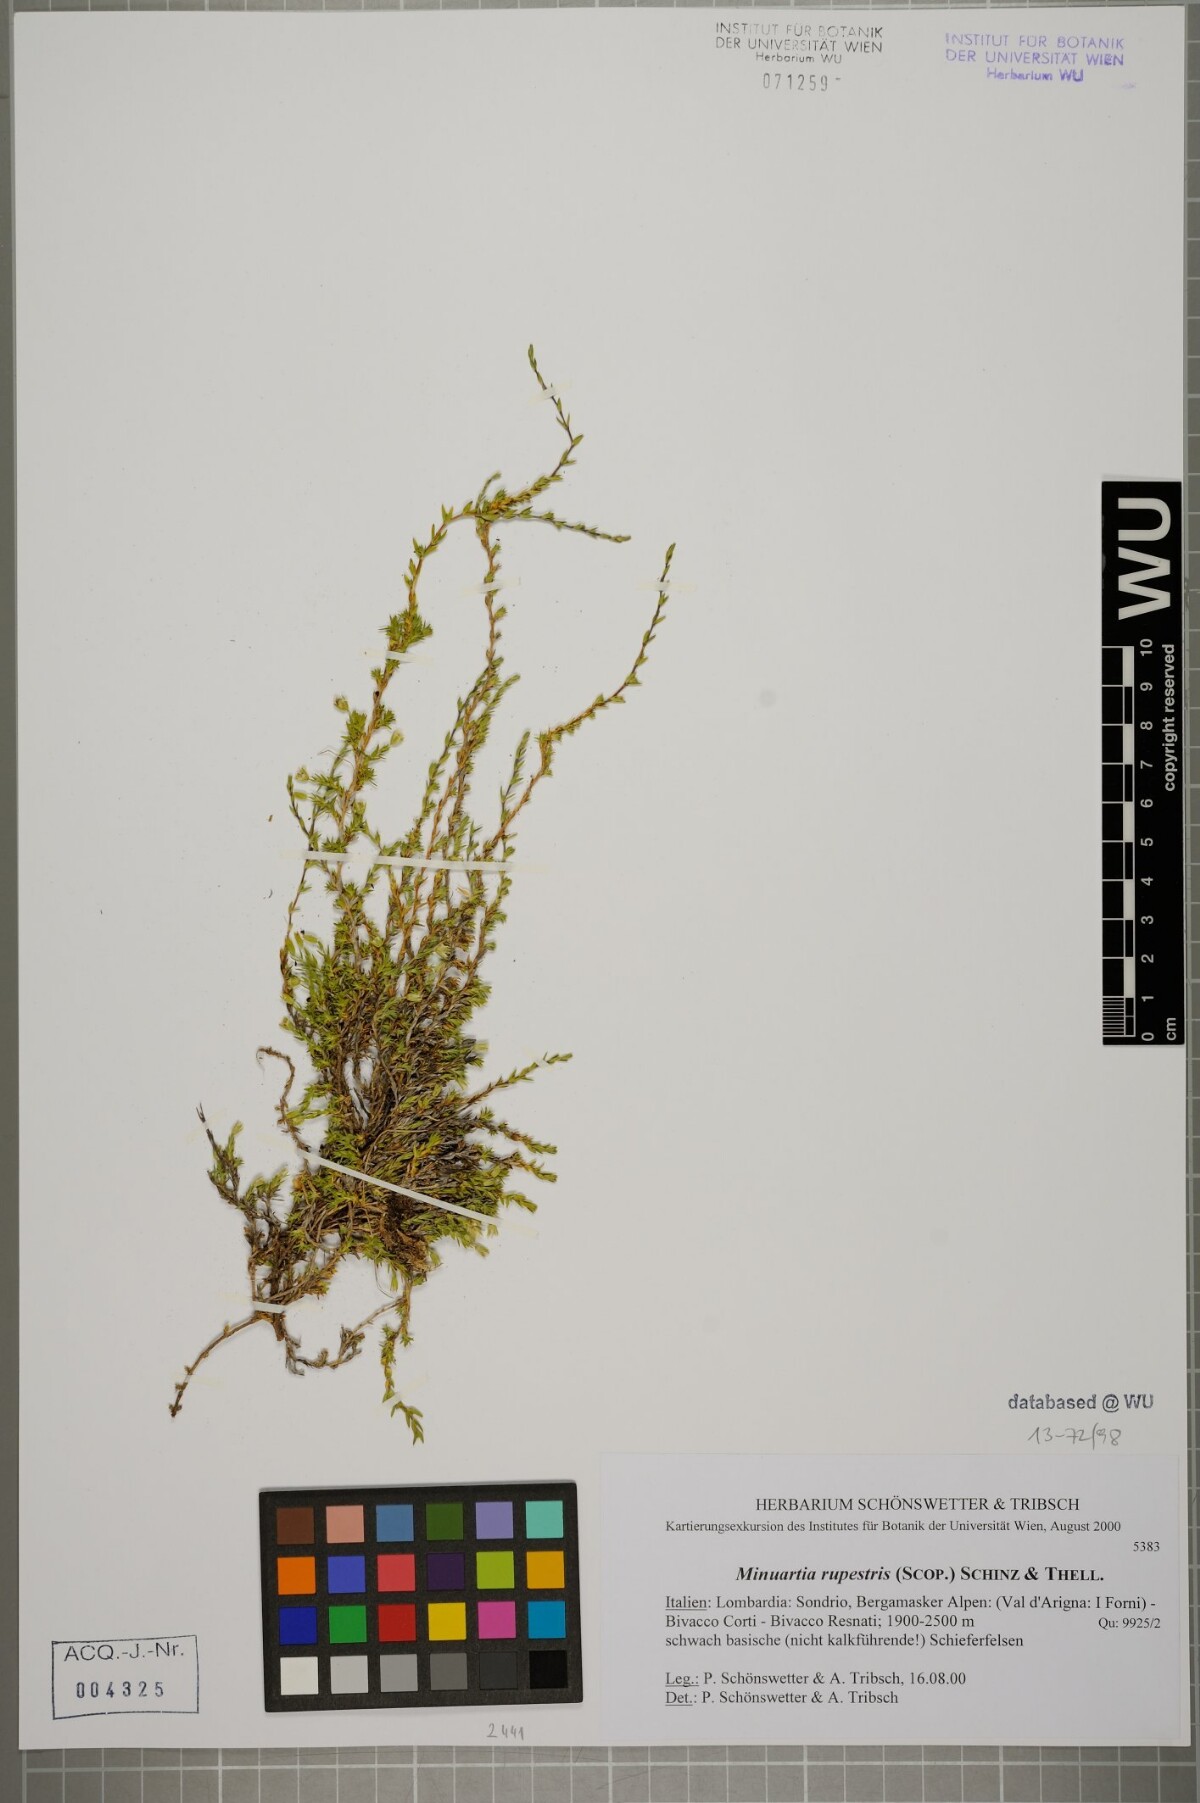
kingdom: Plantae
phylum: Tracheophyta
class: Magnoliopsida
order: Caryophyllales
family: Caryophyllaceae
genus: Facchinia
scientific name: Facchinia rupestris
